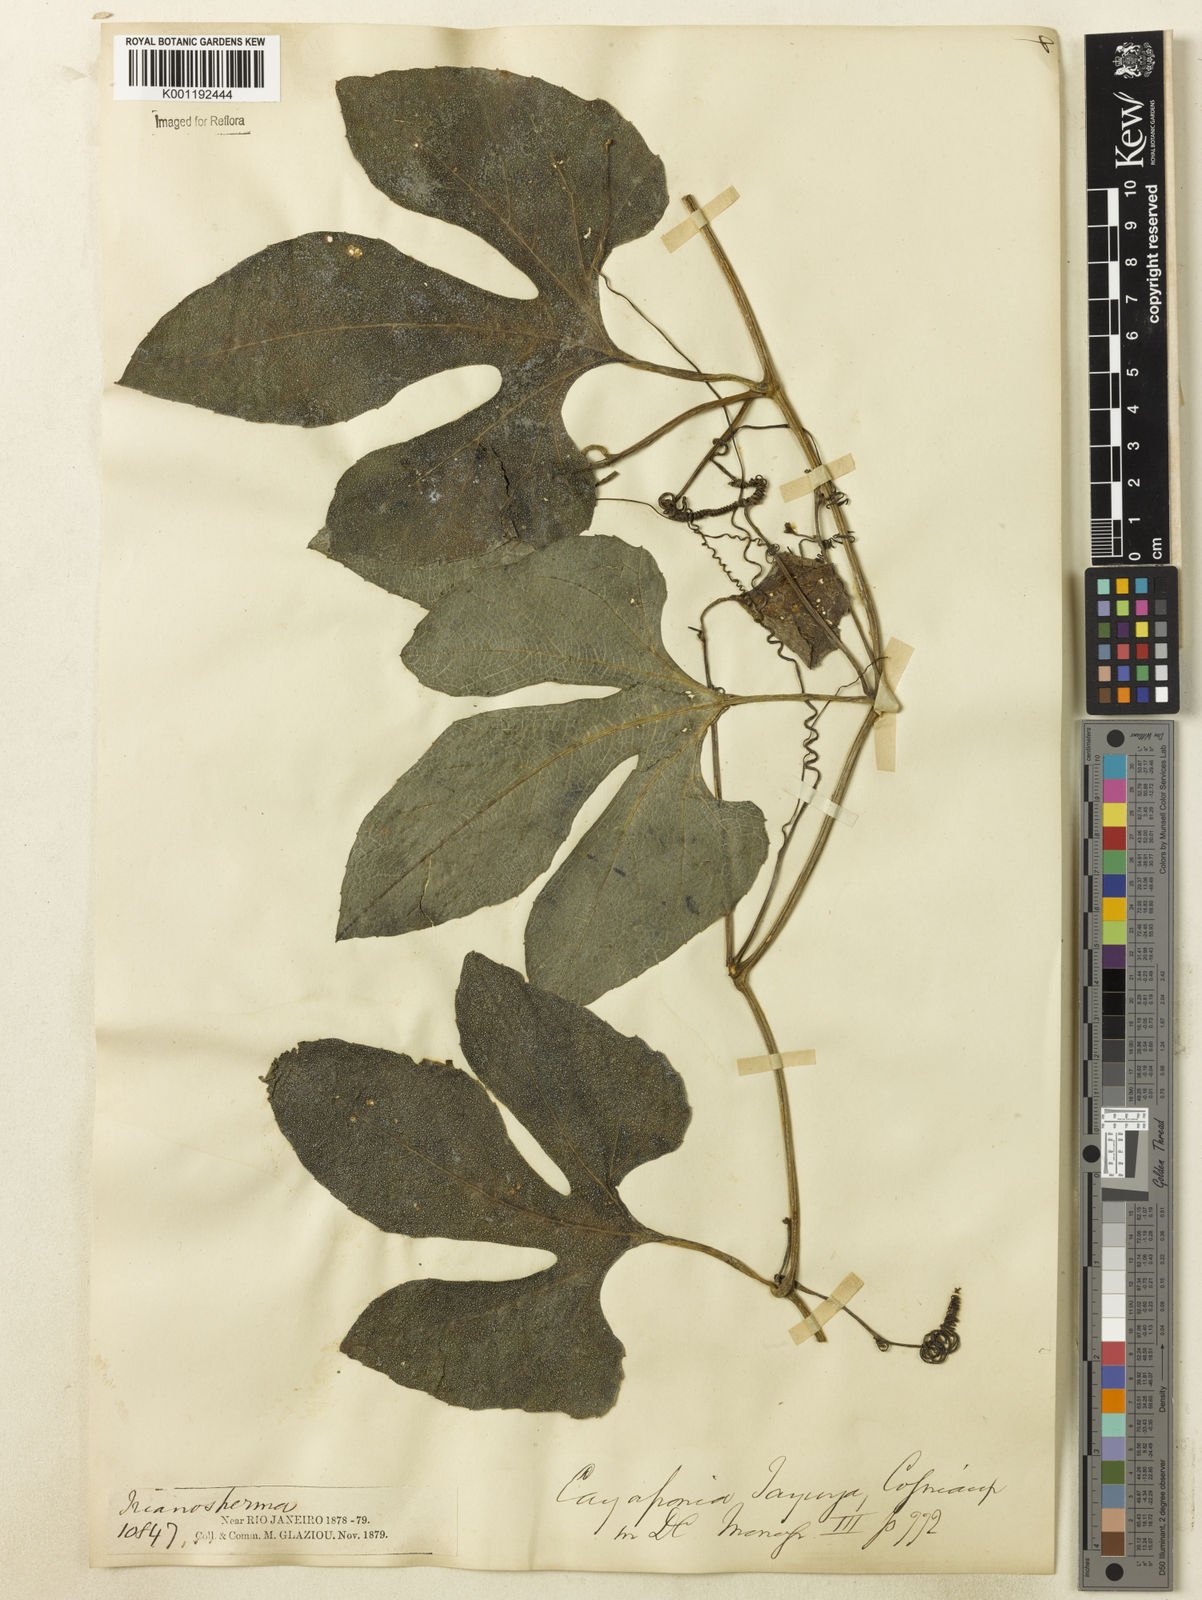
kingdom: Plantae
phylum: Tracheophyta
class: Magnoliopsida
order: Cucurbitales
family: Cucurbitaceae
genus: Cayaponia
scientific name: Cayaponia tayuya
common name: Tayuya
